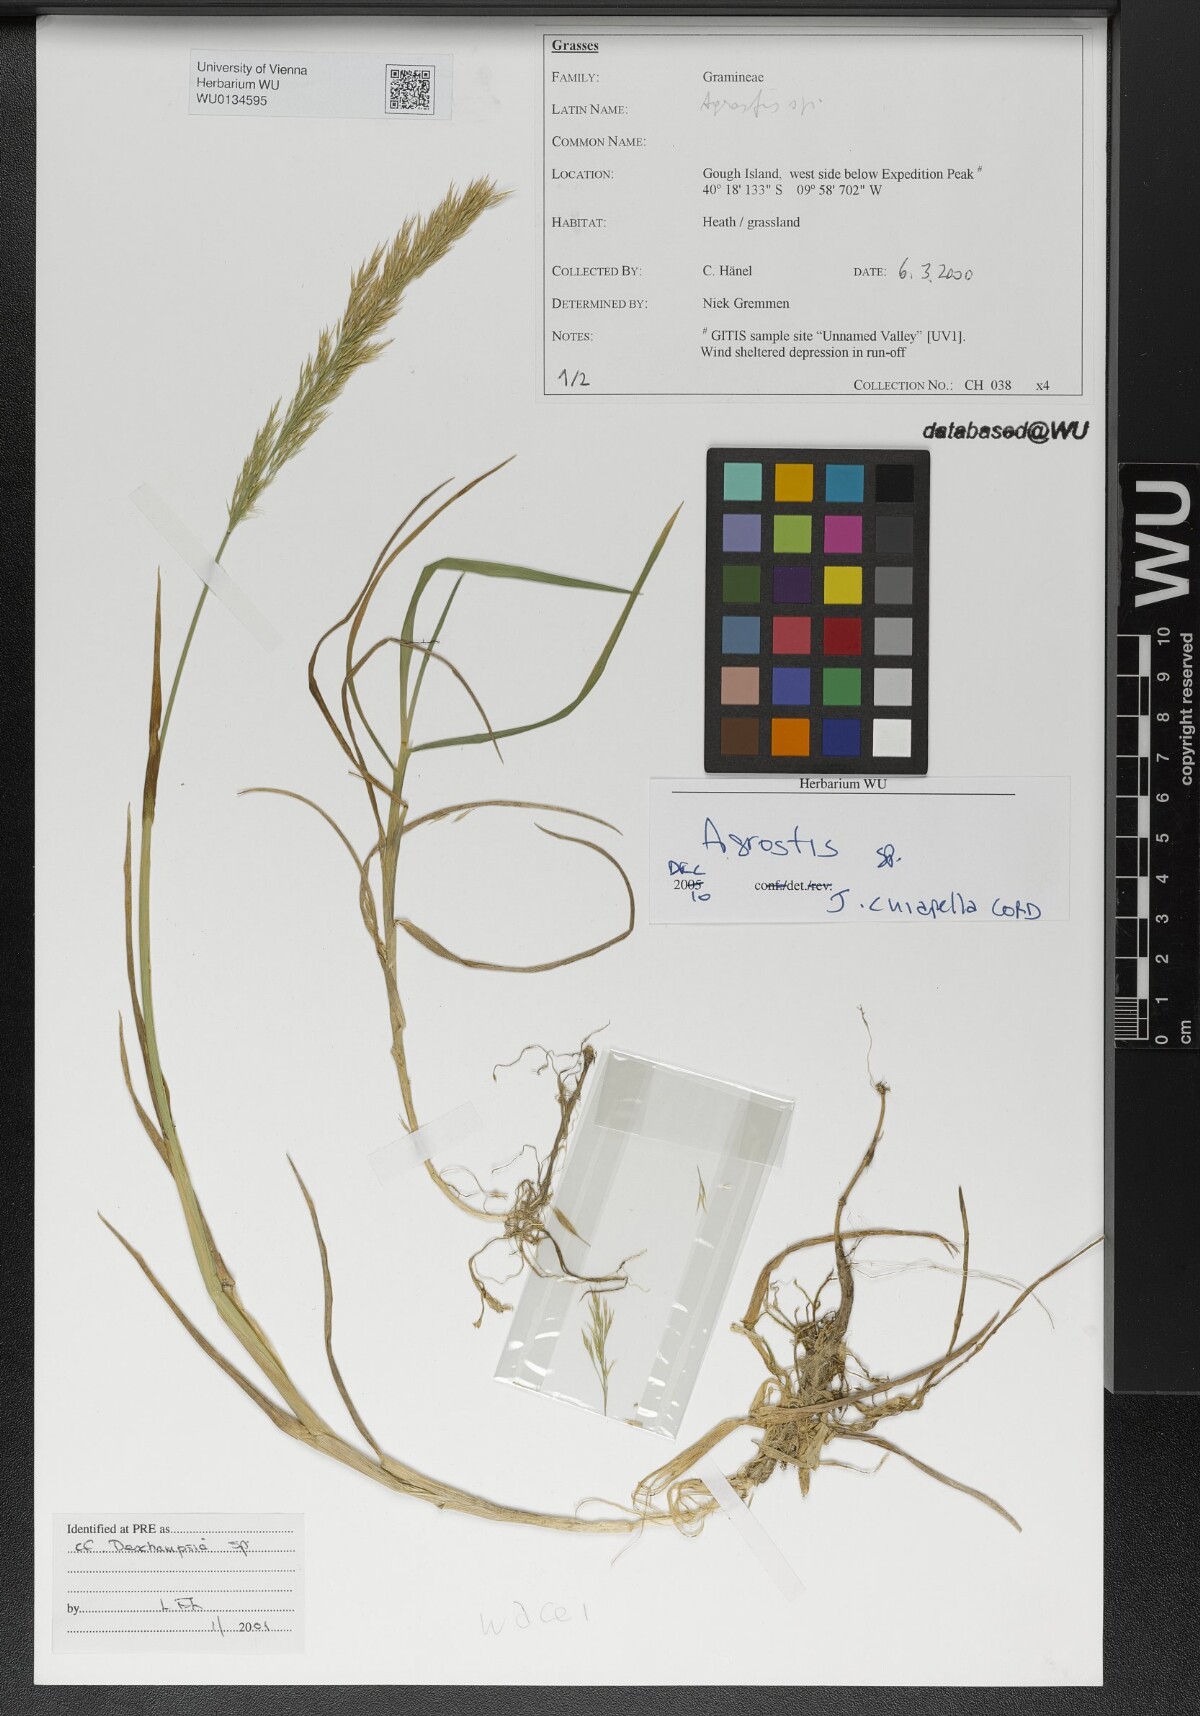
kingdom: Plantae
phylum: Tracheophyta
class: Liliopsida
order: Poales
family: Poaceae
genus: Agrostis
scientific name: Agrostis
